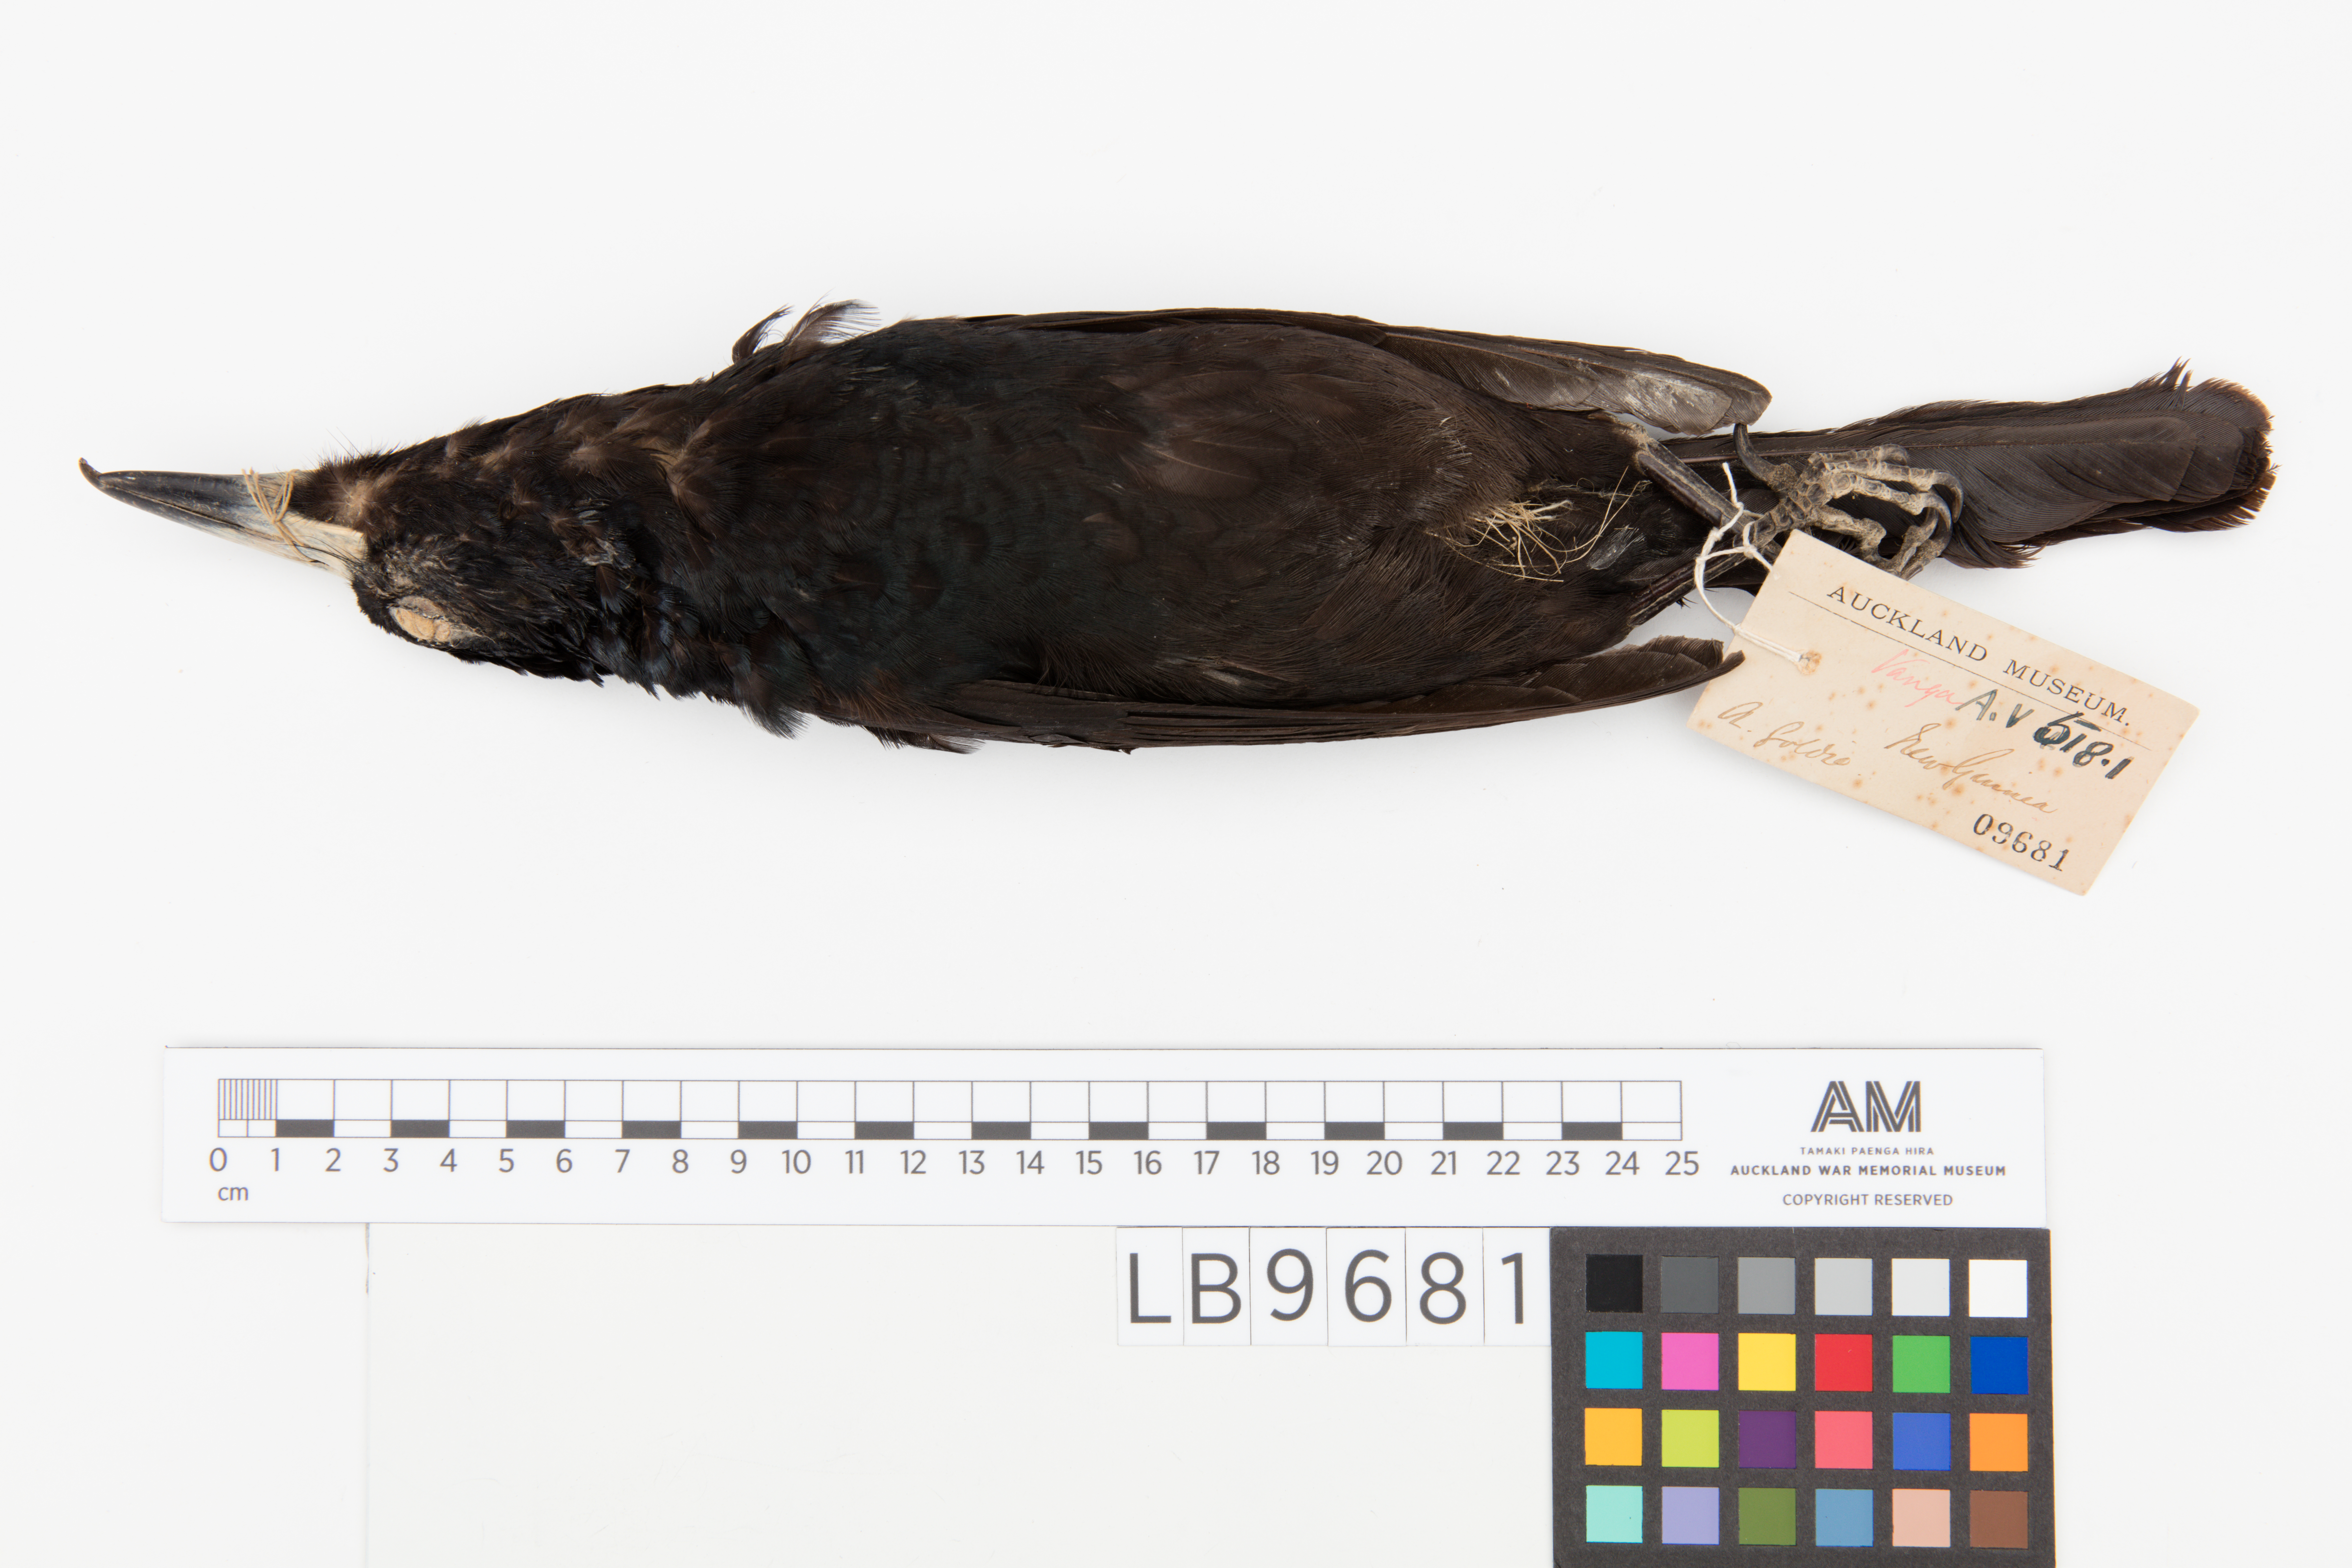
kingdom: Animalia
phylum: Chordata
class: Aves
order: Passeriformes
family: Cracticidae
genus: Cracticus
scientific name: Cracticus quoyi
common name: Black butcherbird
